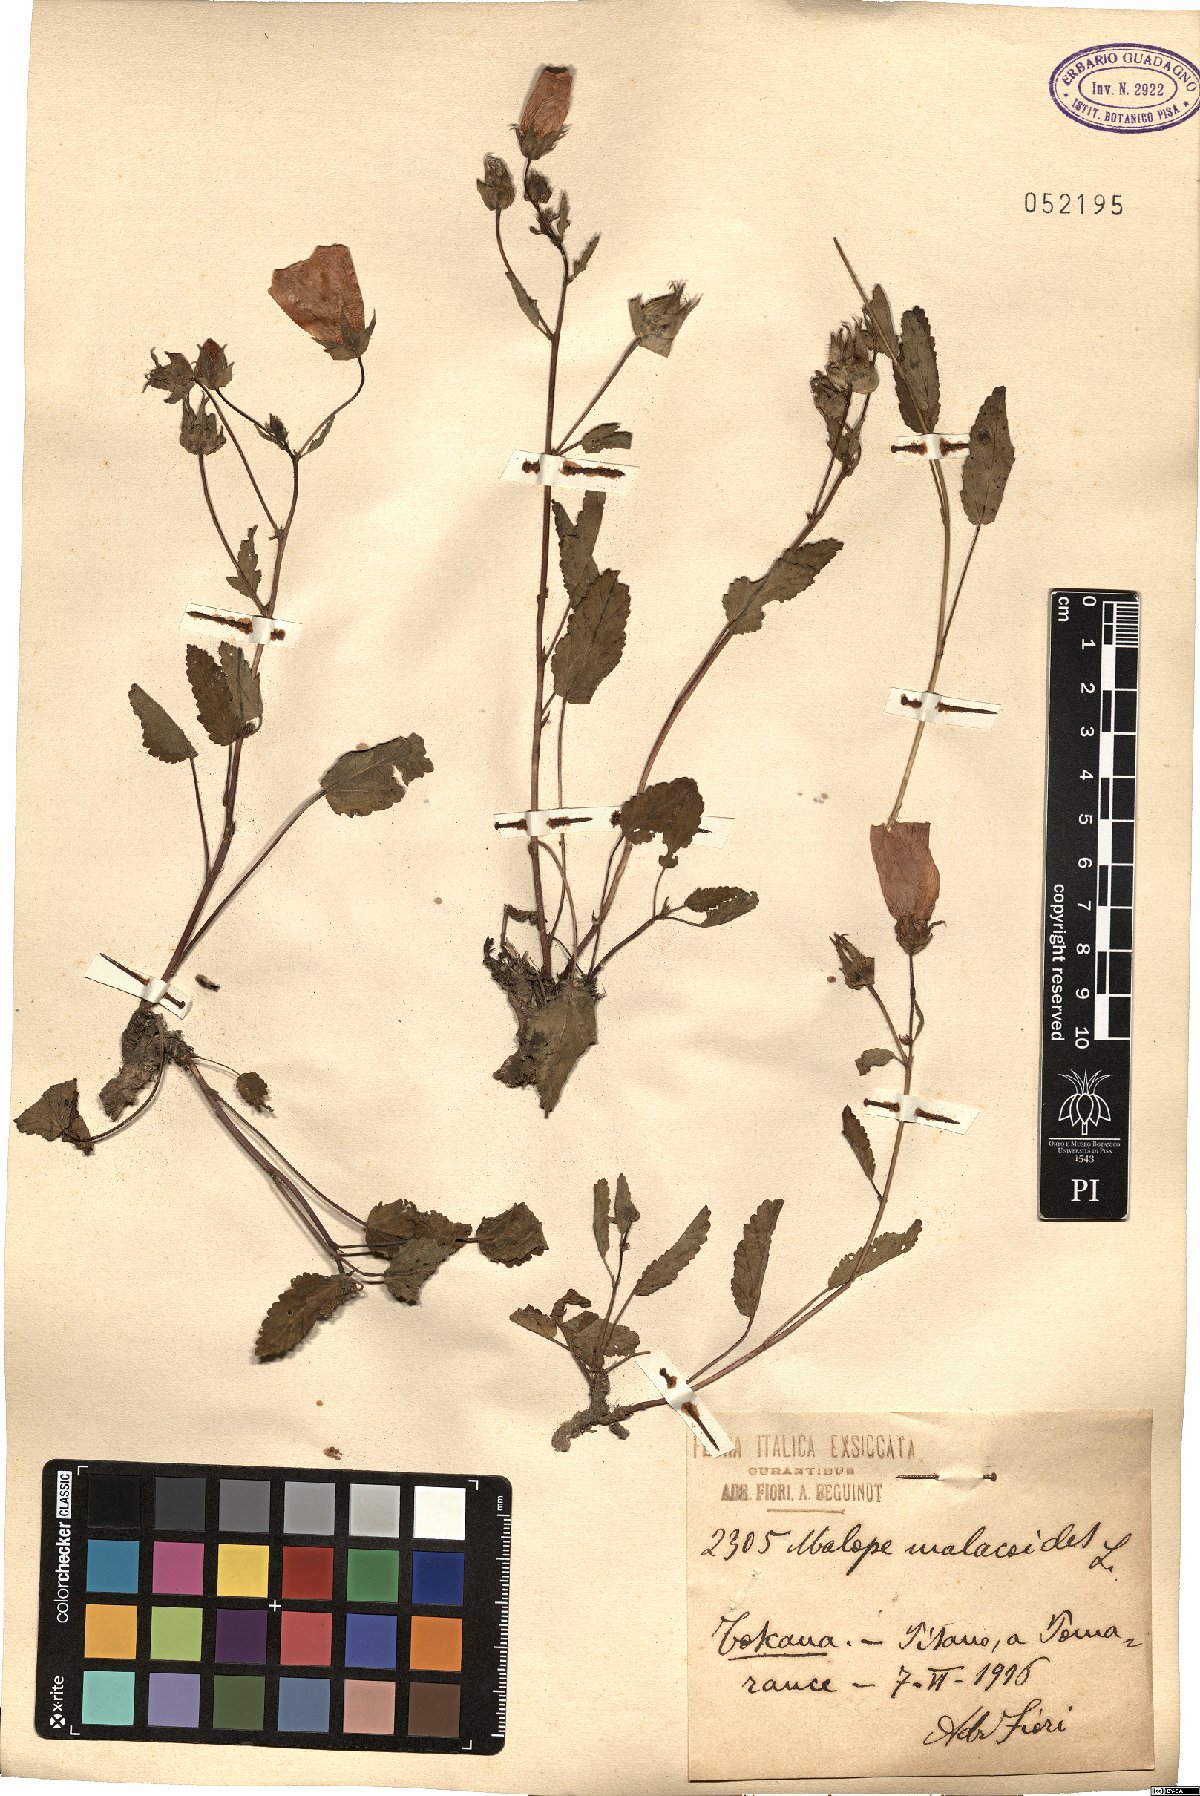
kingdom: Plantae
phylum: Tracheophyta
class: Magnoliopsida
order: Malvales
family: Malvaceae
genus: Malope
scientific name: Malope malacoides
